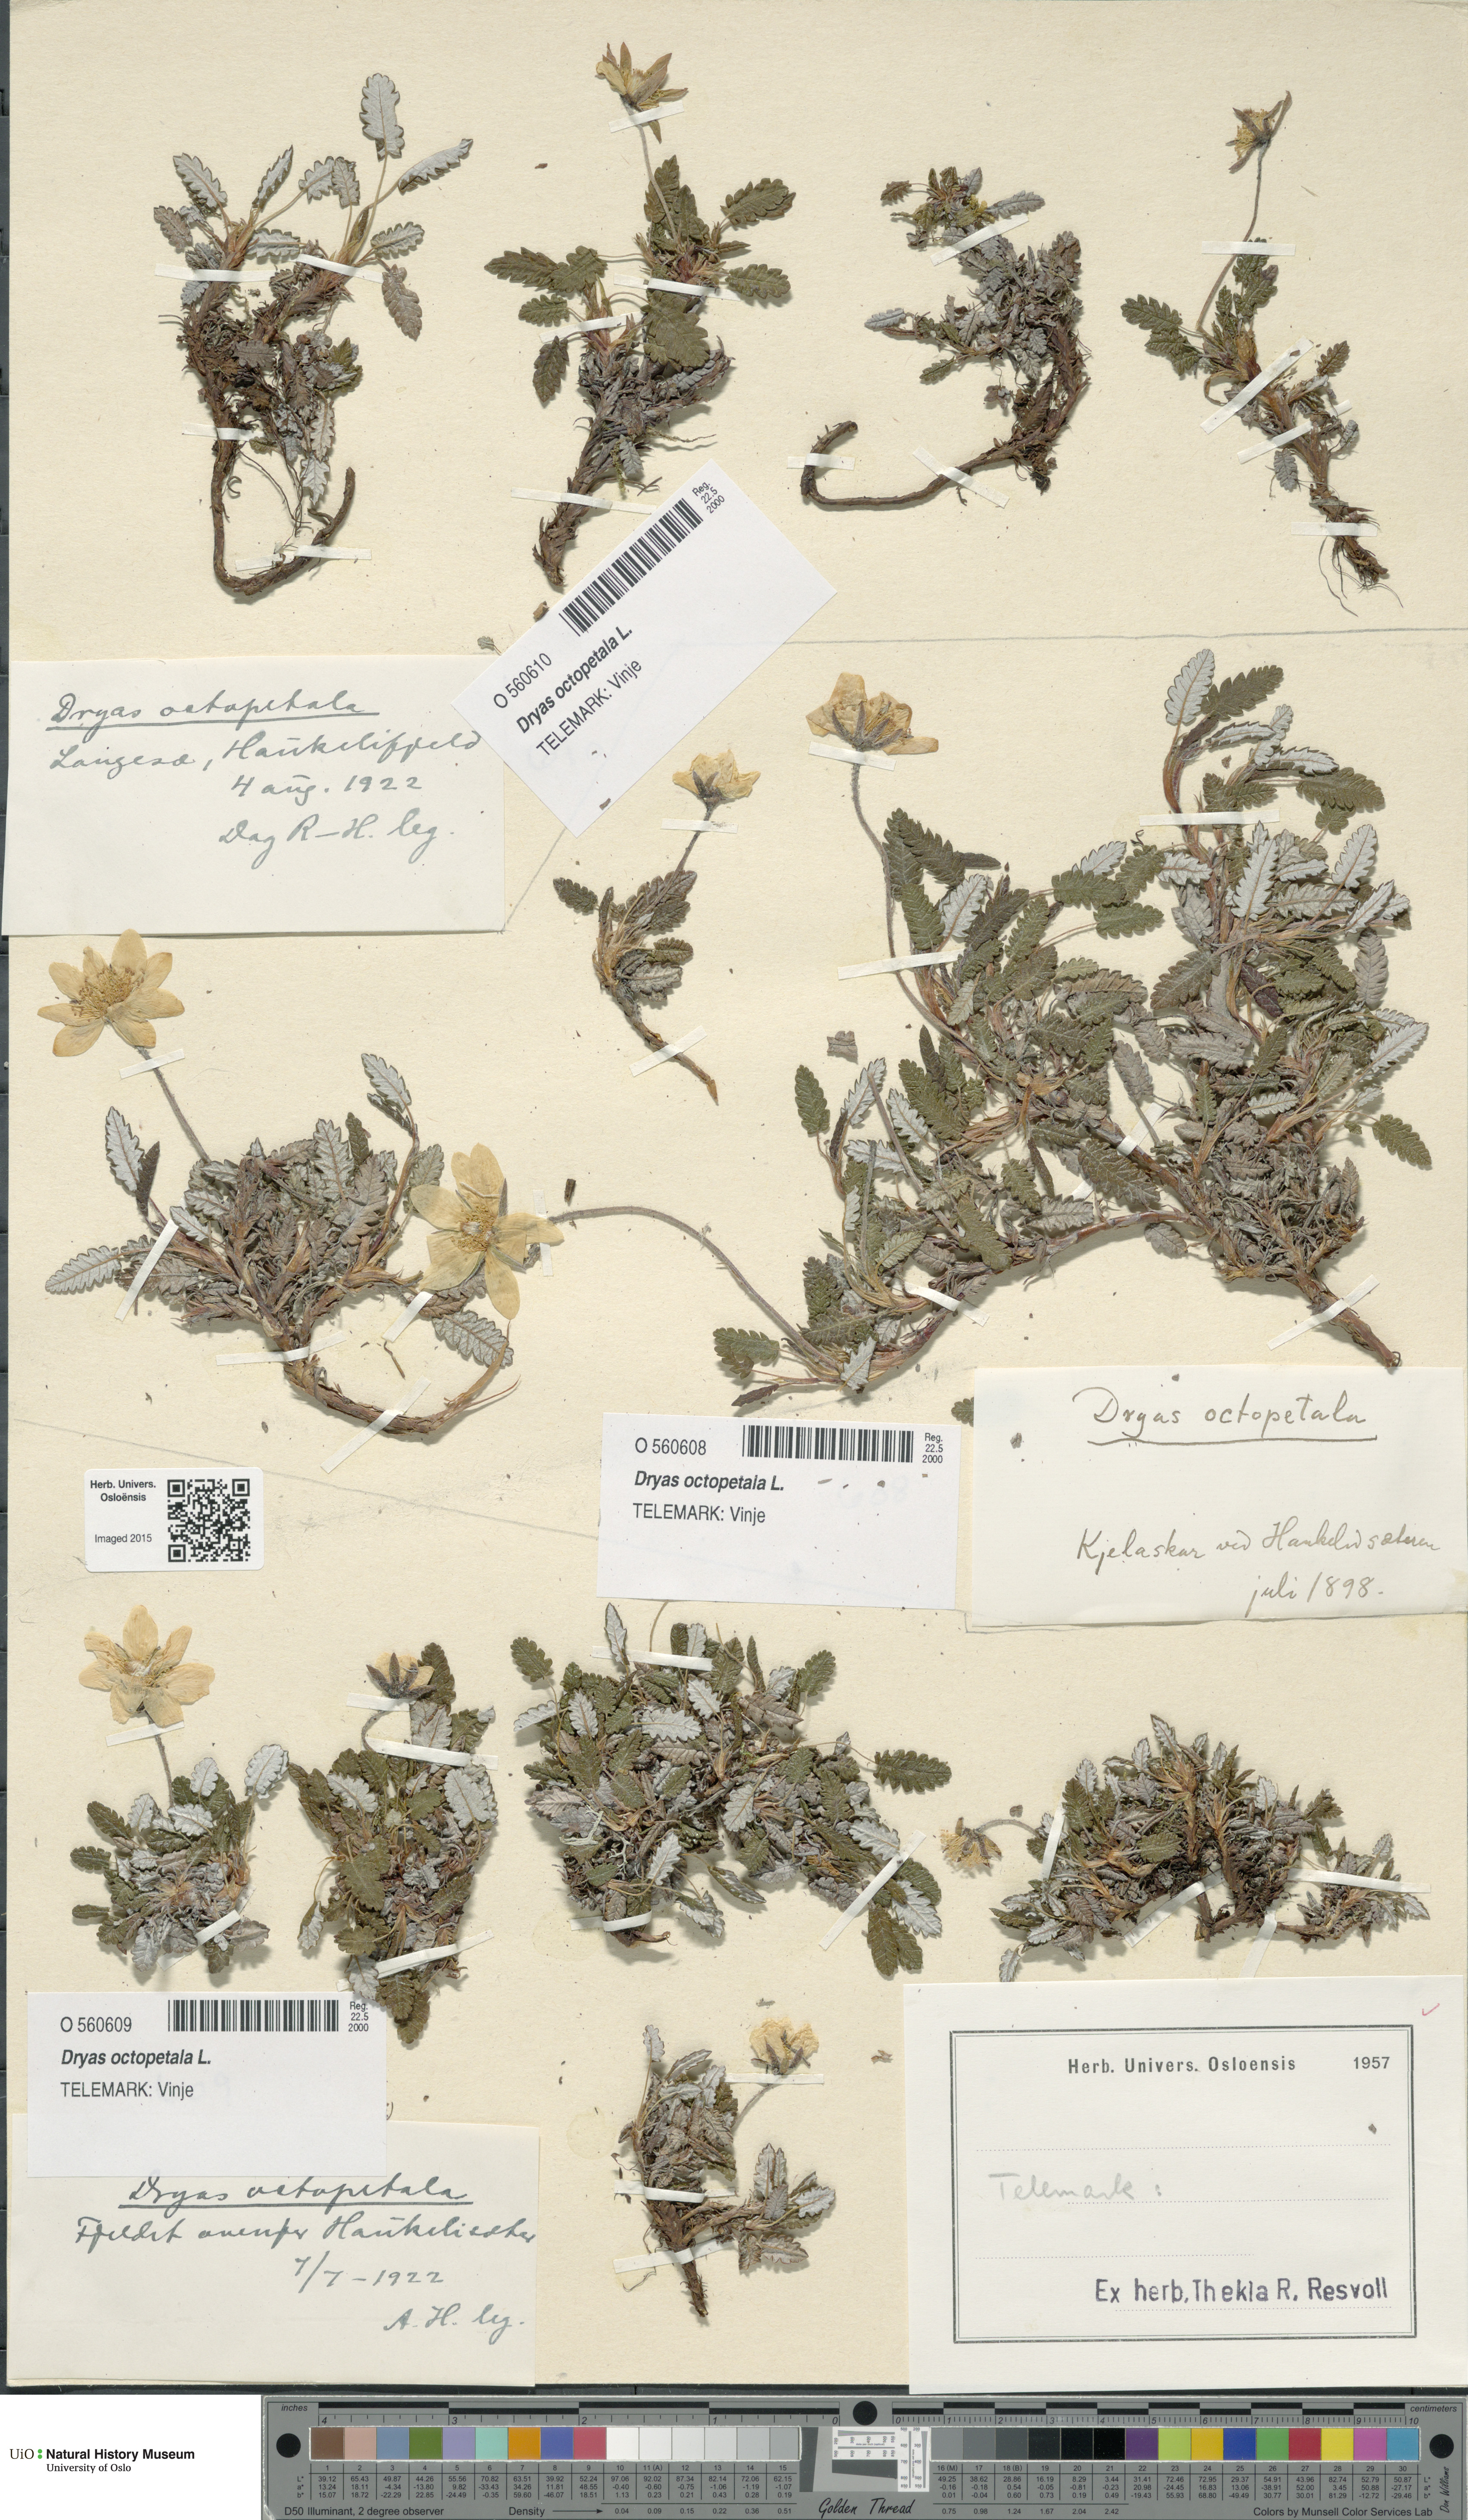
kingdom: Plantae
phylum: Tracheophyta
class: Magnoliopsida
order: Rosales
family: Rosaceae
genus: Dryas
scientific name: Dryas octopetala
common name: Eight-petal mountain-avens
